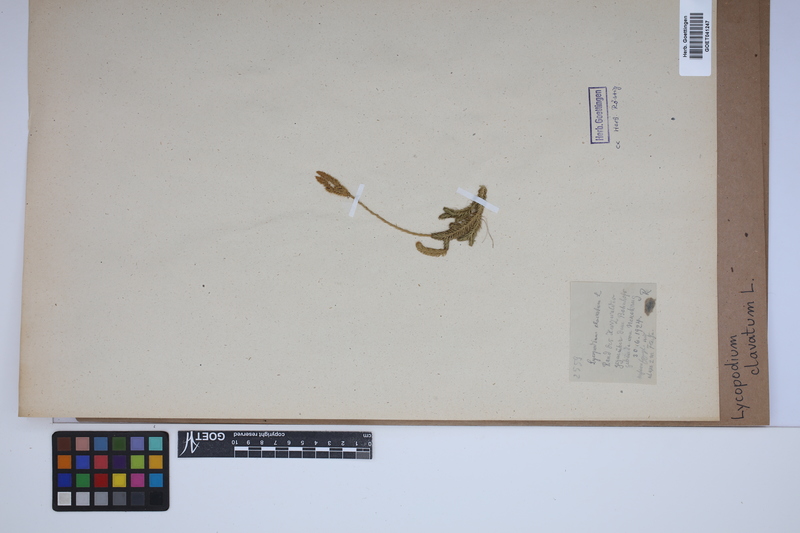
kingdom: Plantae
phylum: Tracheophyta
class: Lycopodiopsida
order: Lycopodiales
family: Lycopodiaceae
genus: Lycopodium
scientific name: Lycopodium clavatum
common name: Stag's-horn clubmoss
